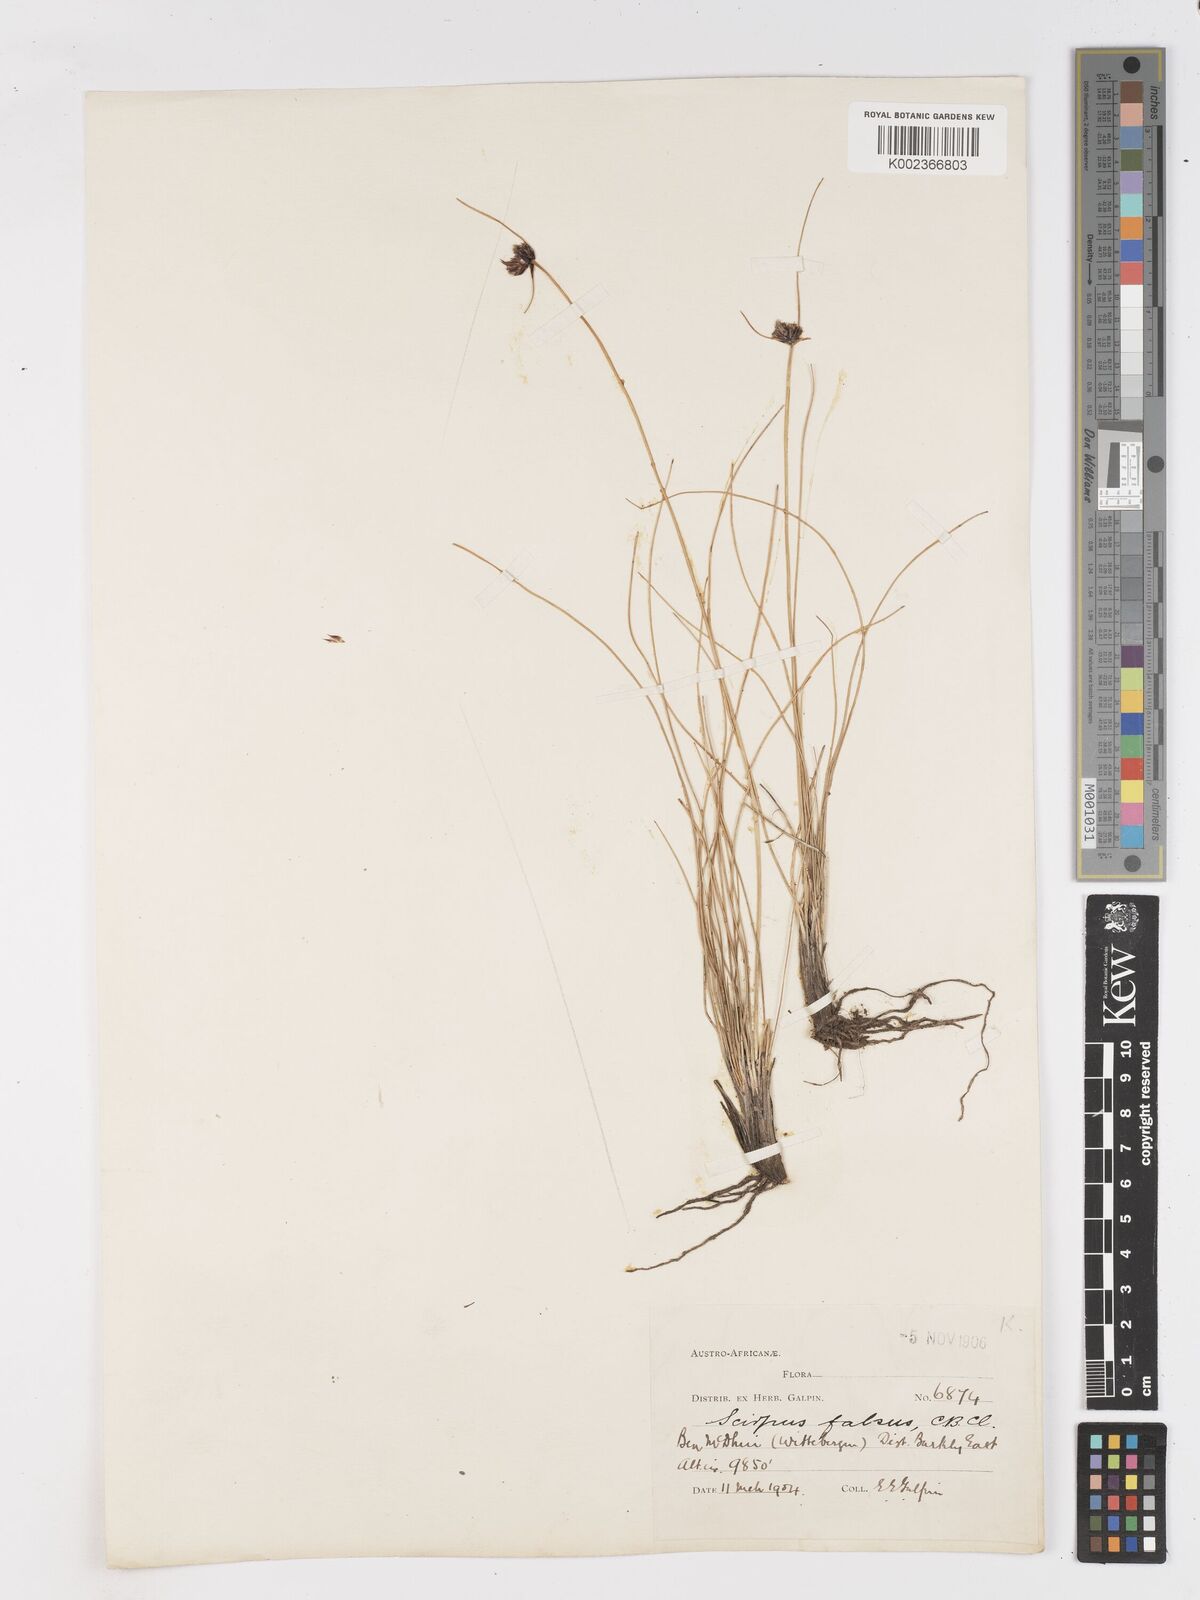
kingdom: Plantae
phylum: Tracheophyta
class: Liliopsida
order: Poales
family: Cyperaceae
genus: Dracoscirpoides
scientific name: Dracoscirpoides falsa
